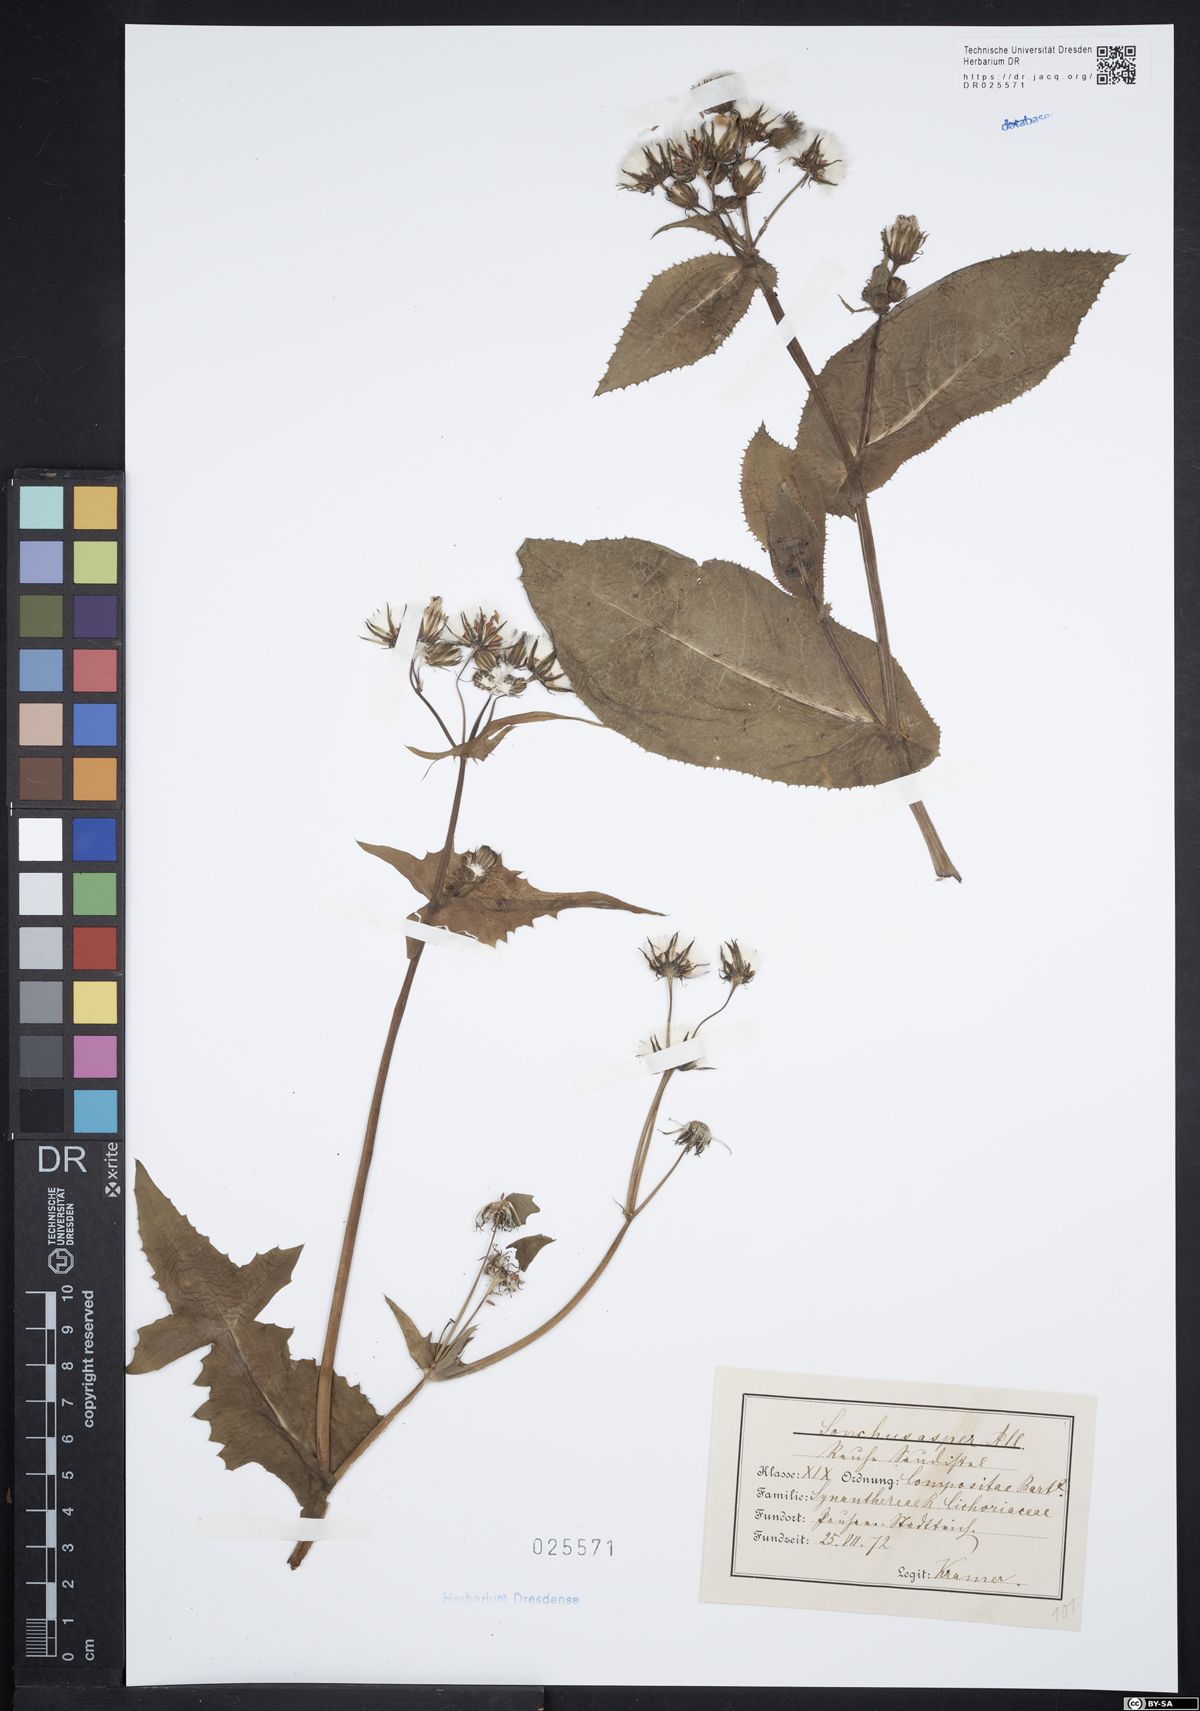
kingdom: Plantae
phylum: Tracheophyta
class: Magnoliopsida
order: Asterales
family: Asteraceae
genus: Sonchus
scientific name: Sonchus asper
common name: Prickly sow-thistle
